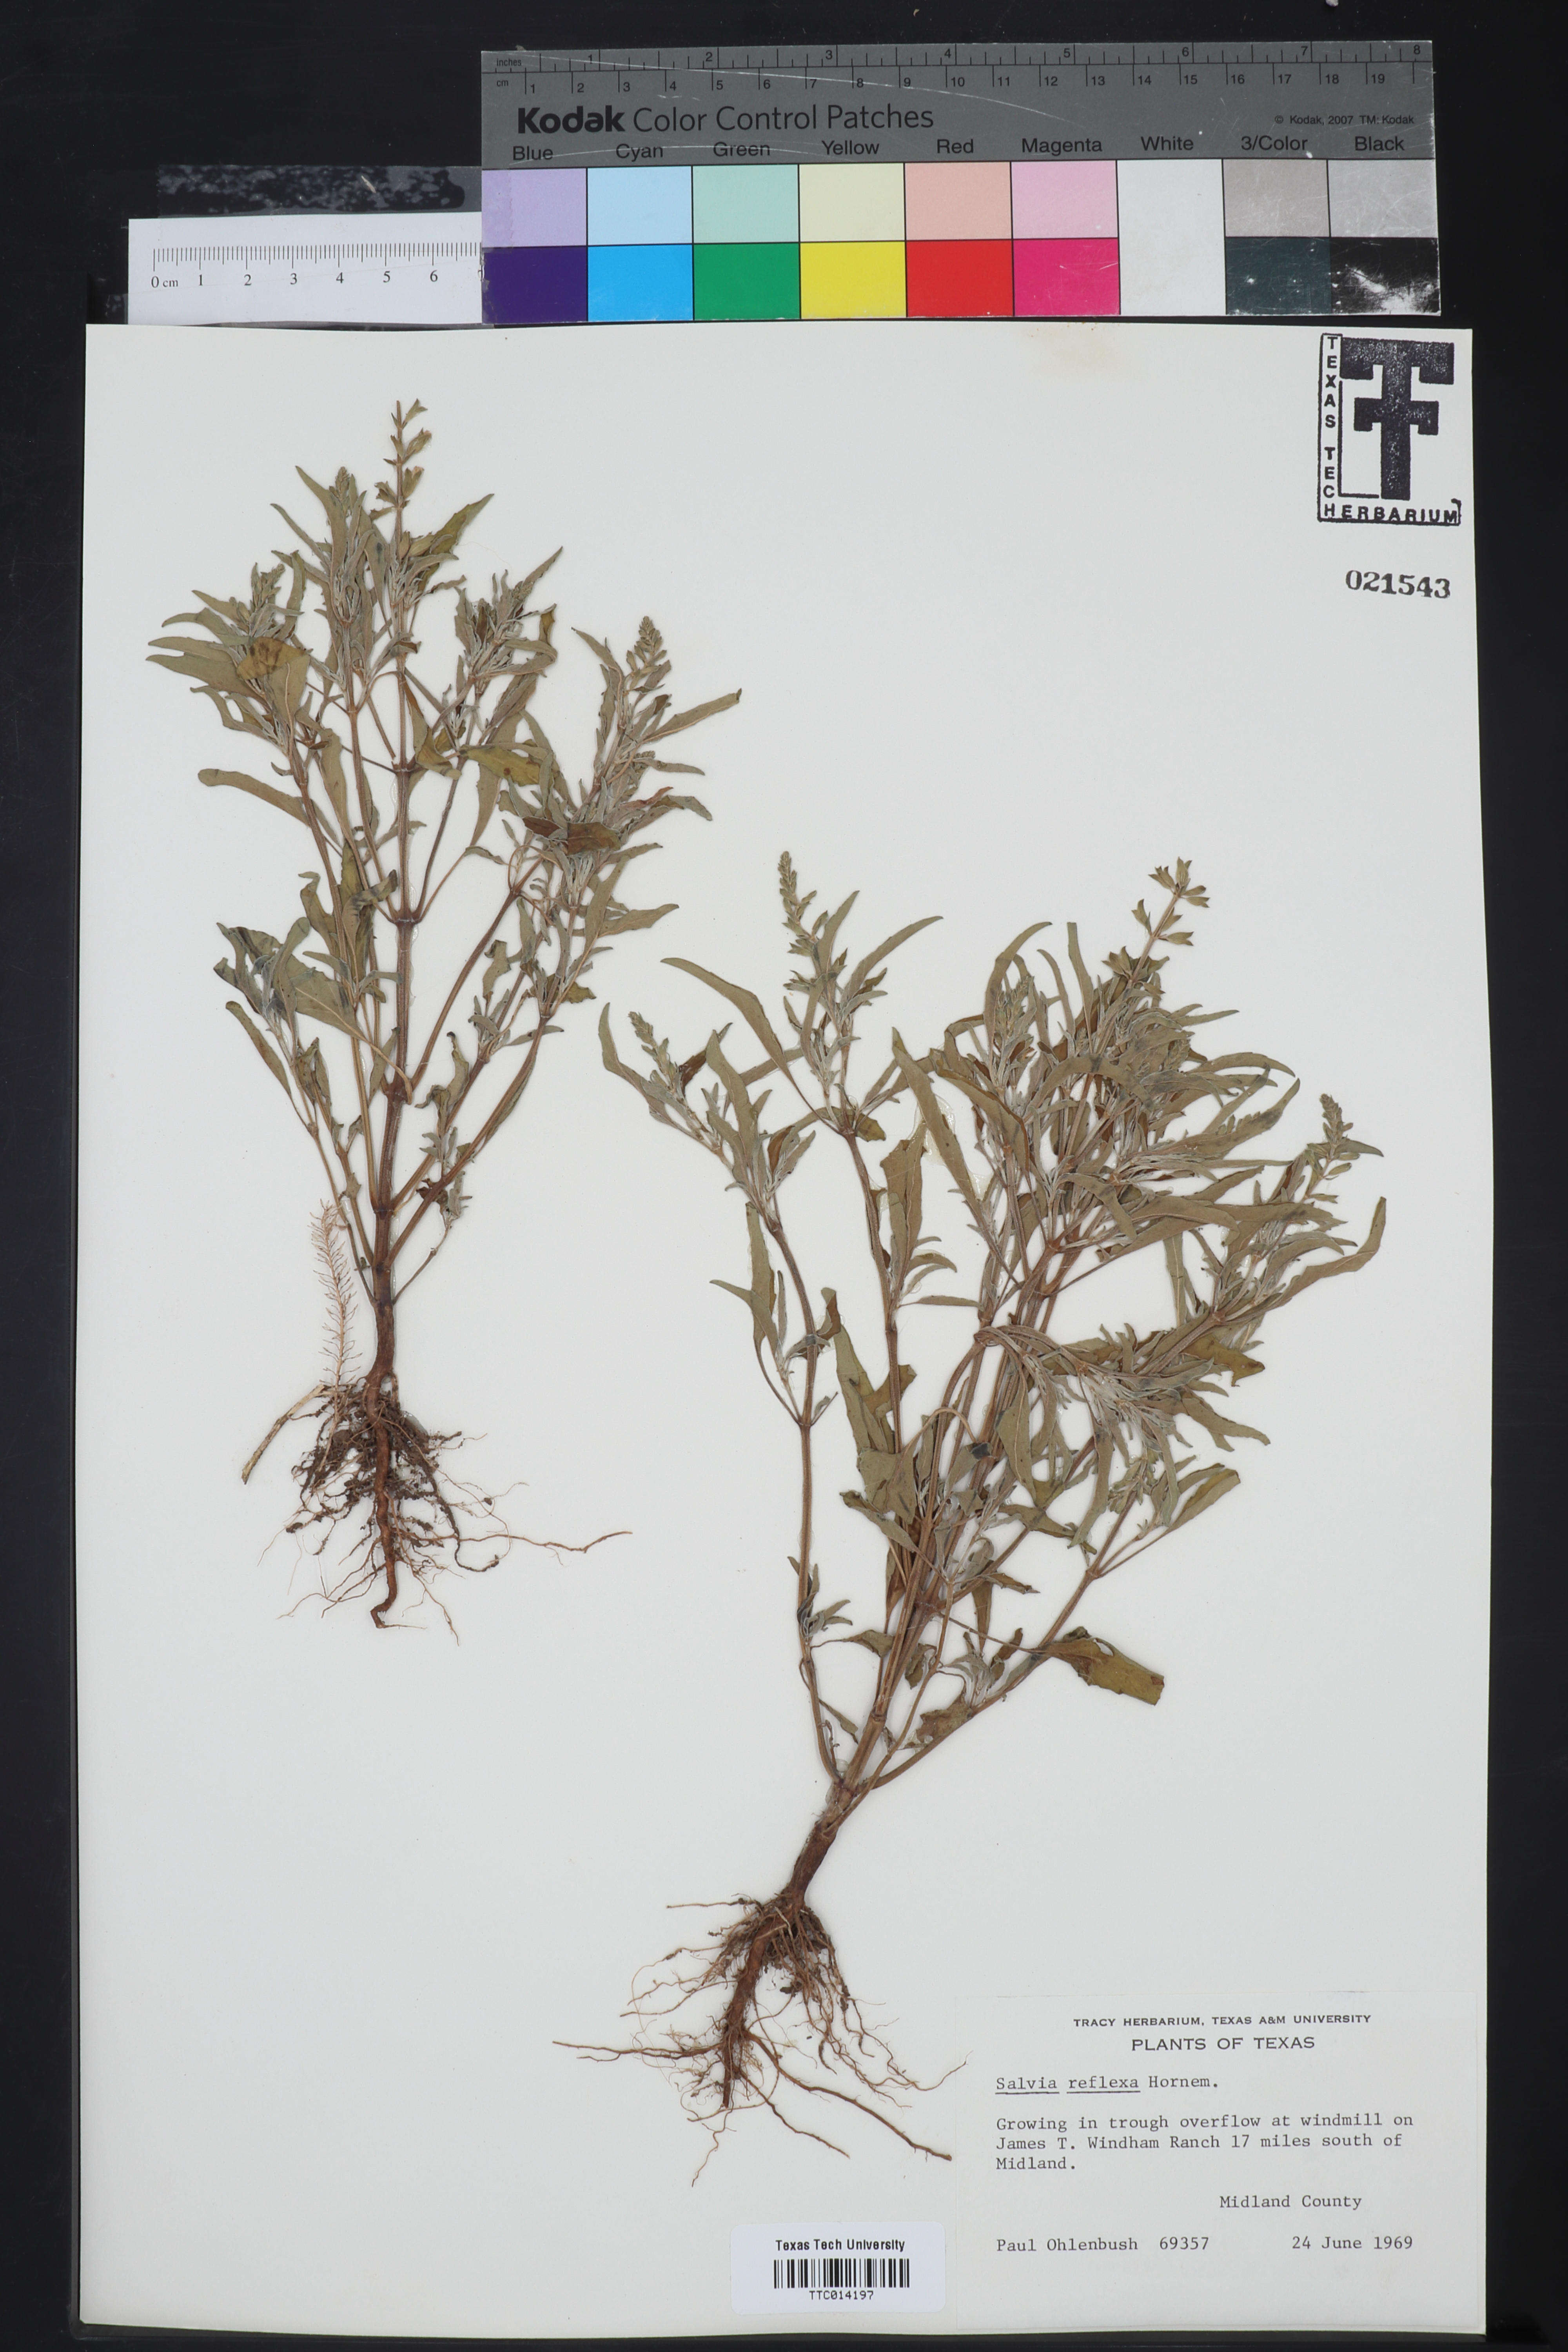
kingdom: Plantae
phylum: Tracheophyta
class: Magnoliopsida
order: Lamiales
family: Lamiaceae
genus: Salvia
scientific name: Salvia reflexa
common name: Mintweed
